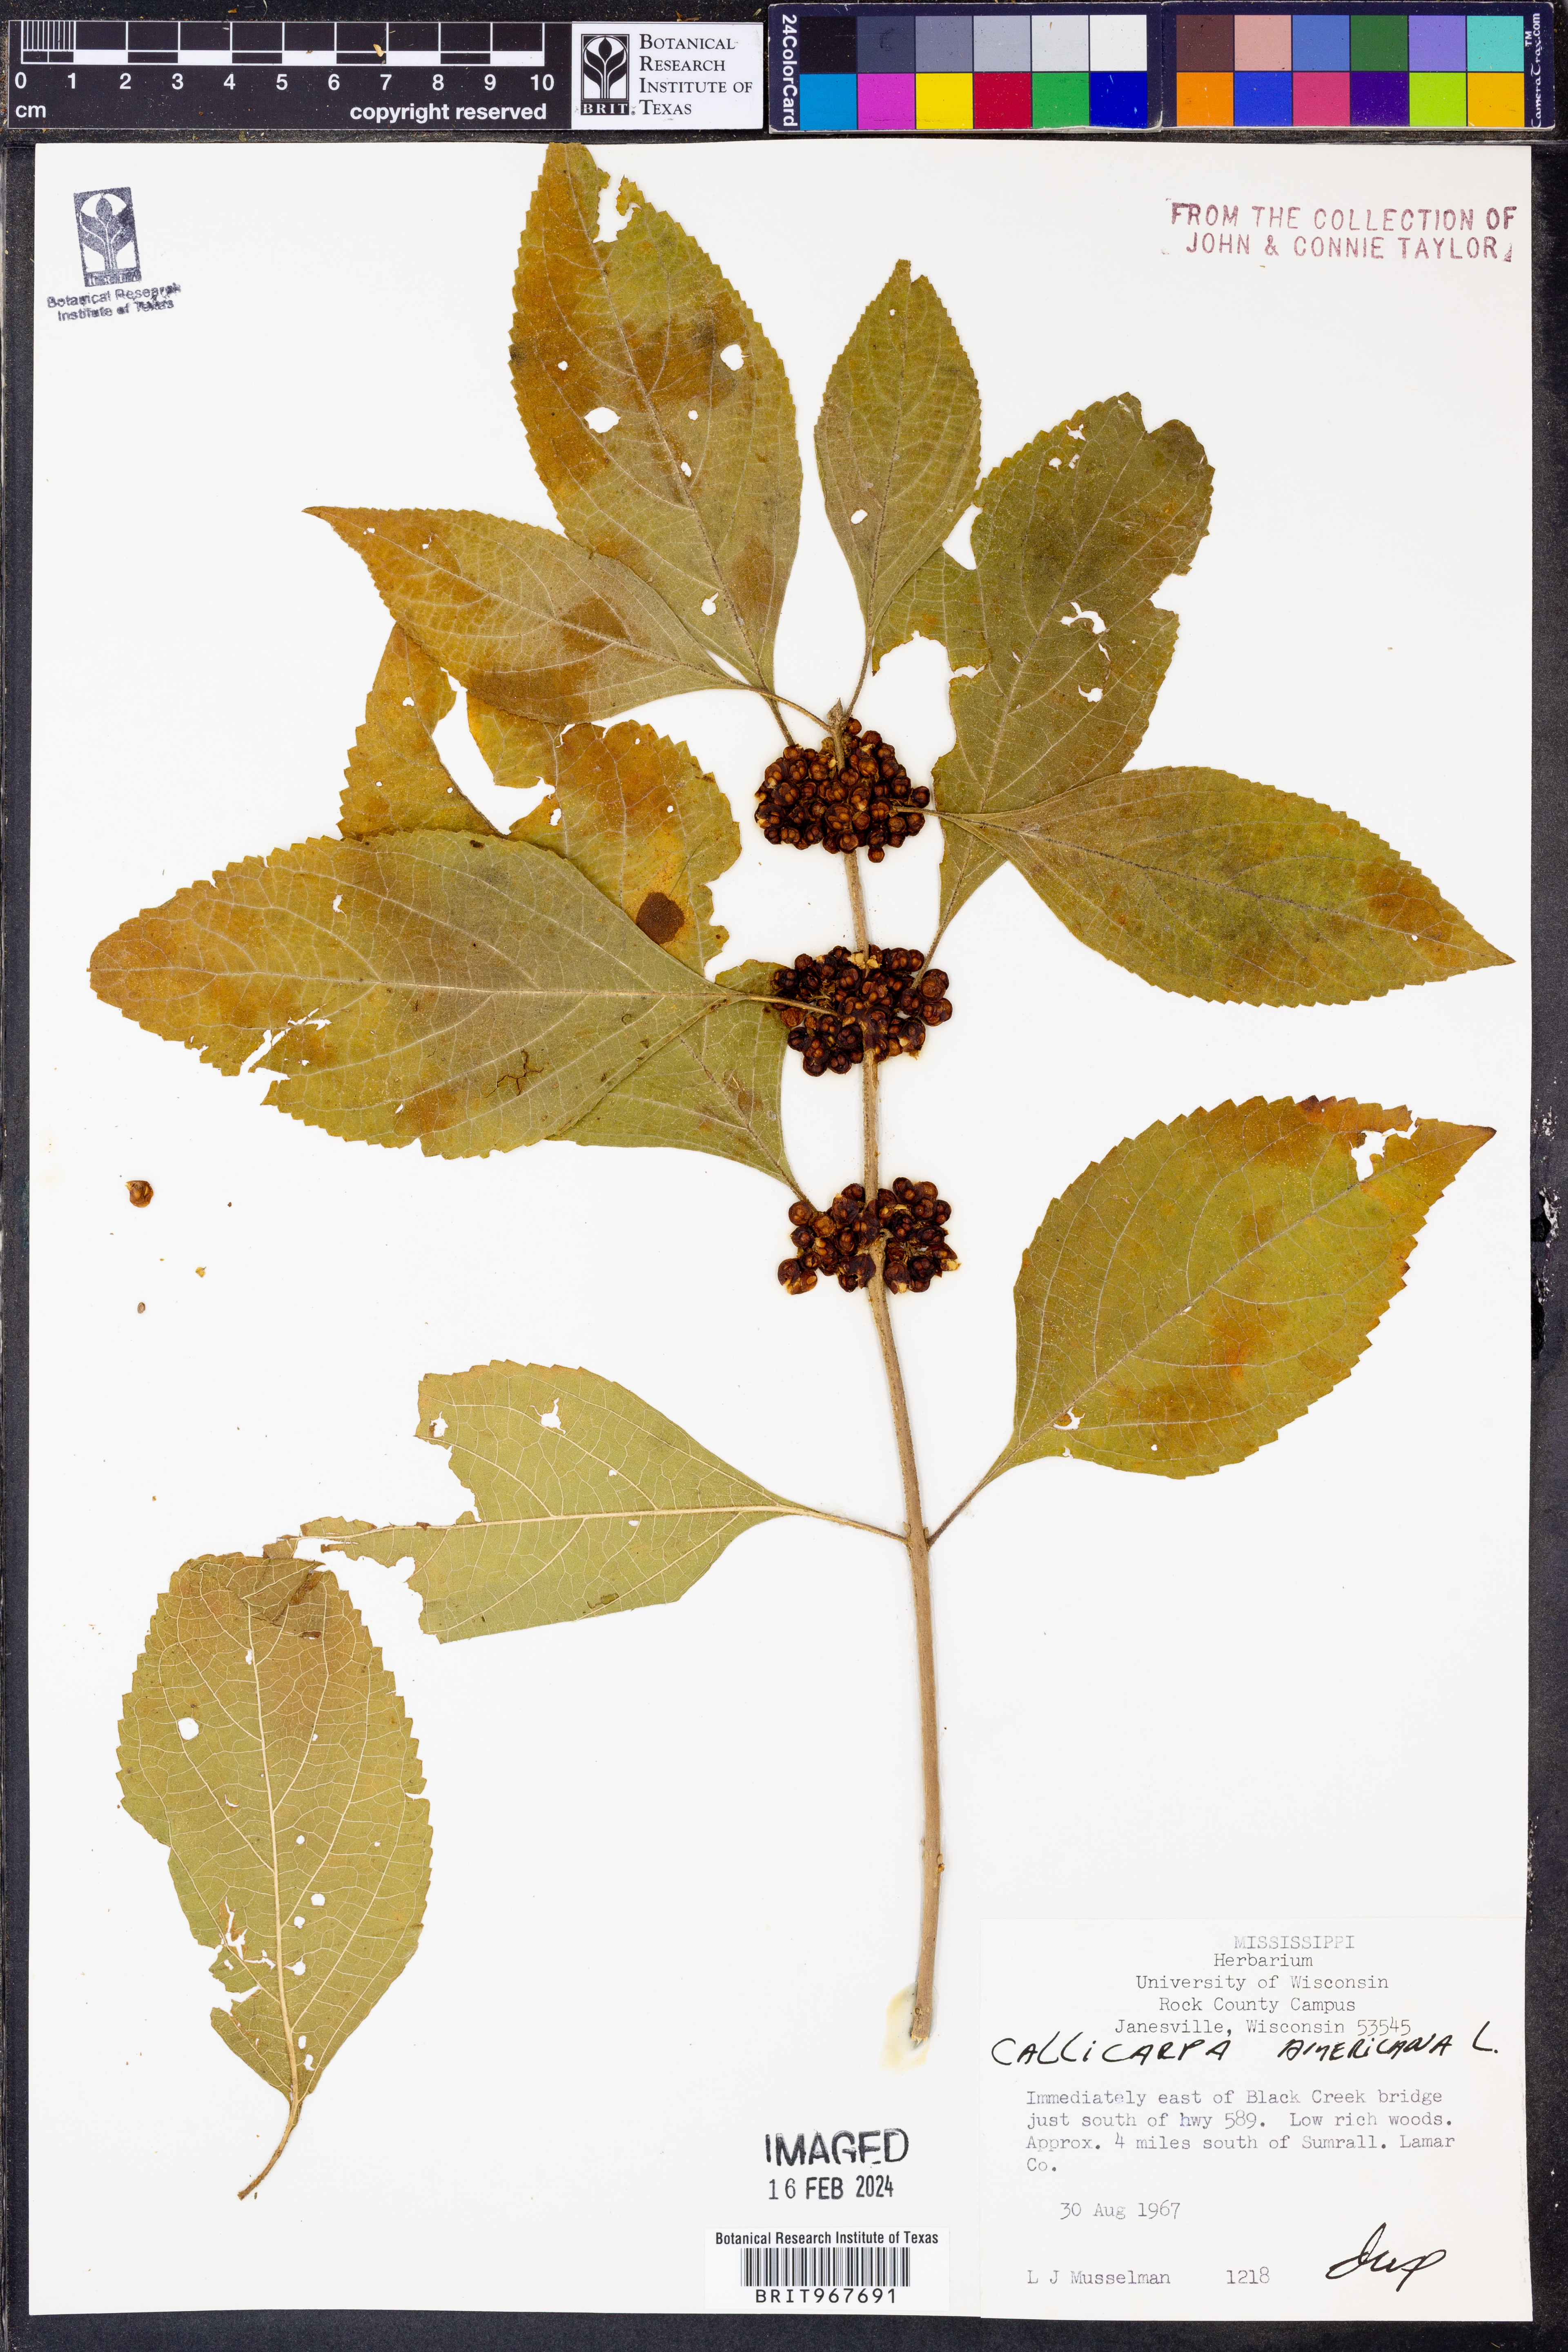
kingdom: Plantae
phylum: Tracheophyta
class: Magnoliopsida
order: Lamiales
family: Lamiaceae
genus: Callicarpa
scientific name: Callicarpa americana
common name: American beautyberry
